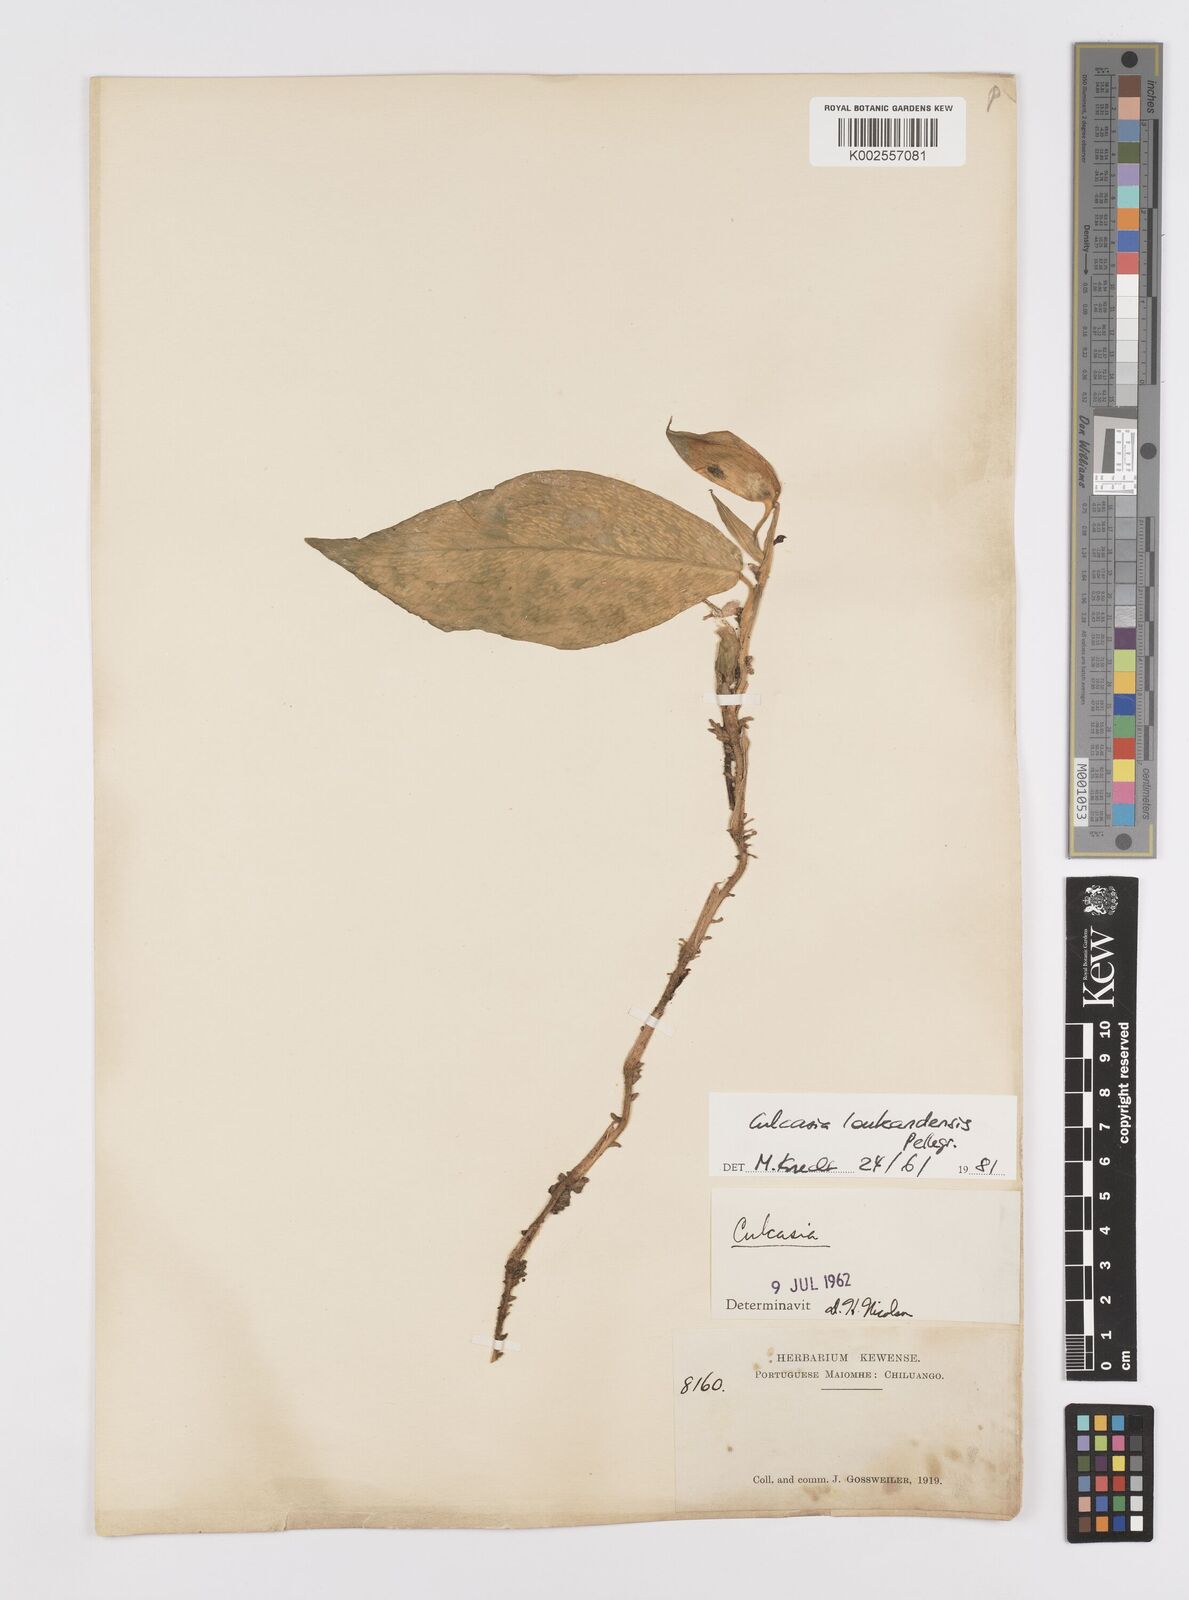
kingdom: Plantae
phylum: Tracheophyta
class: Liliopsida
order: Alismatales
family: Araceae
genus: Culcasia
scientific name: Culcasia loukandensis
